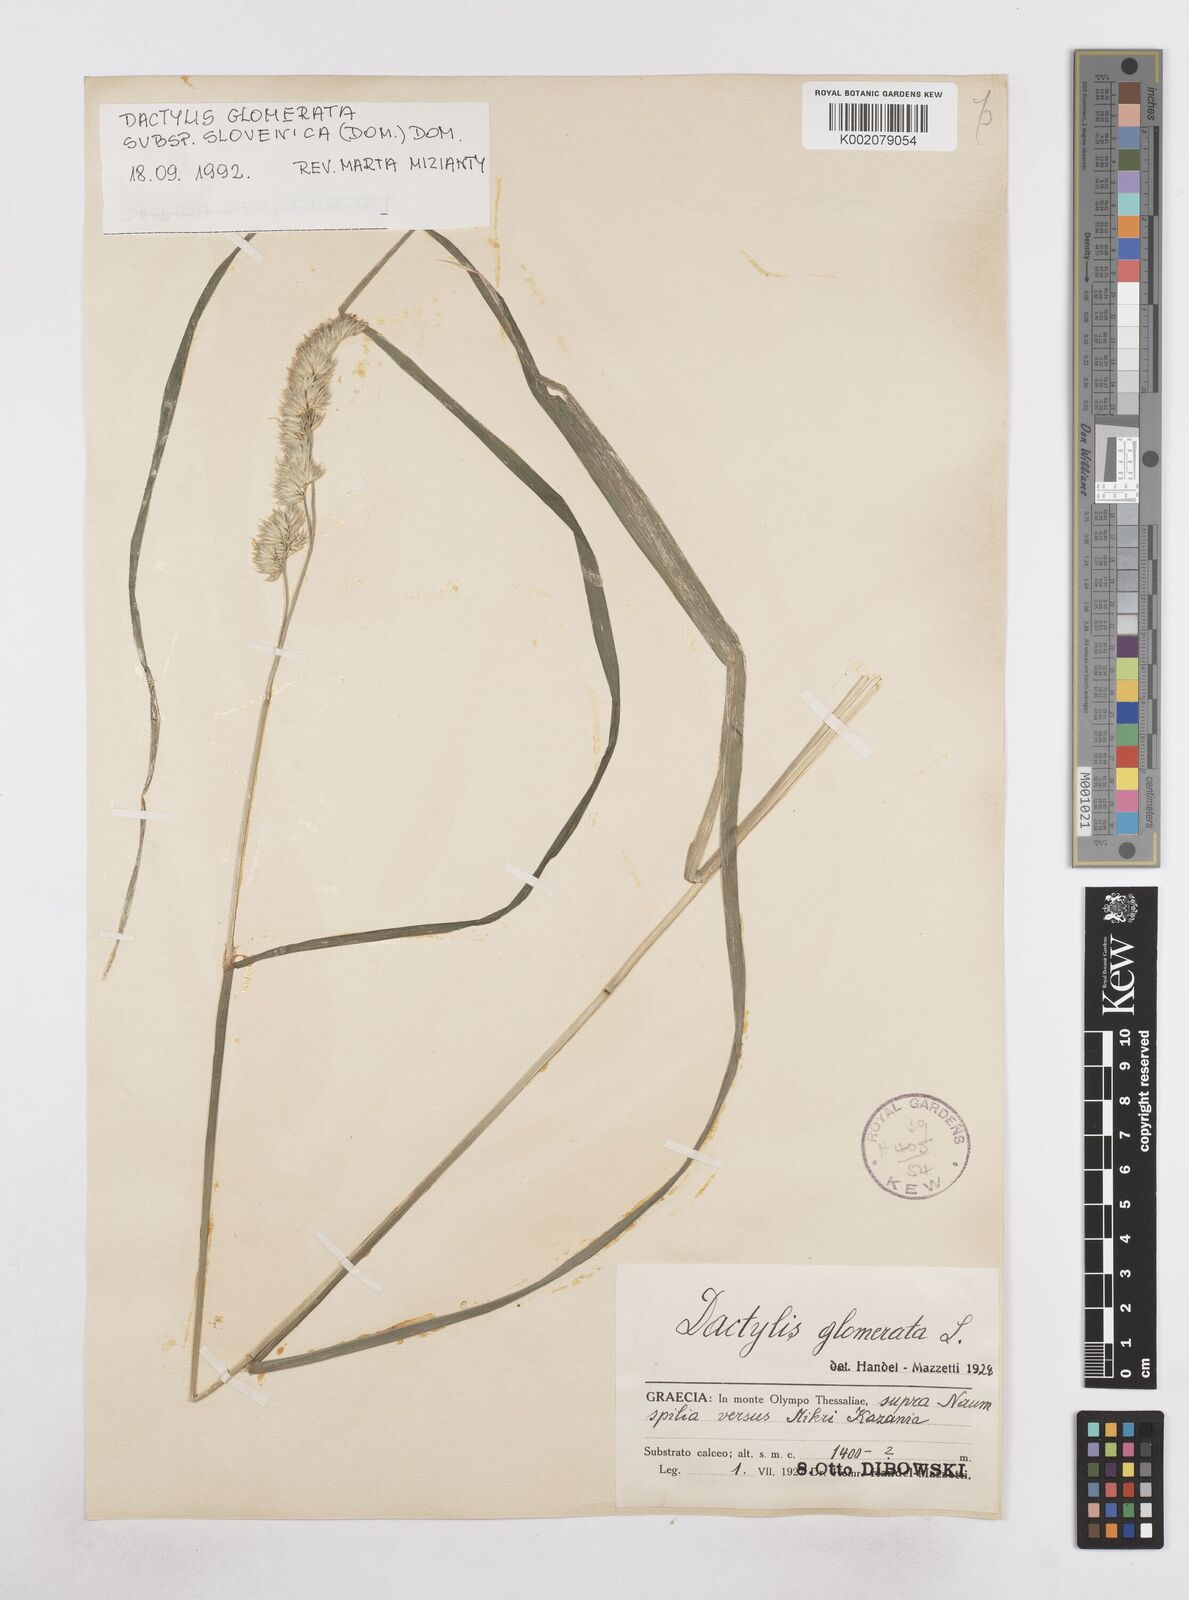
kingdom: Plantae
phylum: Tracheophyta
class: Liliopsida
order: Poales
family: Poaceae
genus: Dactylis
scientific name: Dactylis glomerata
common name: Orchardgrass
